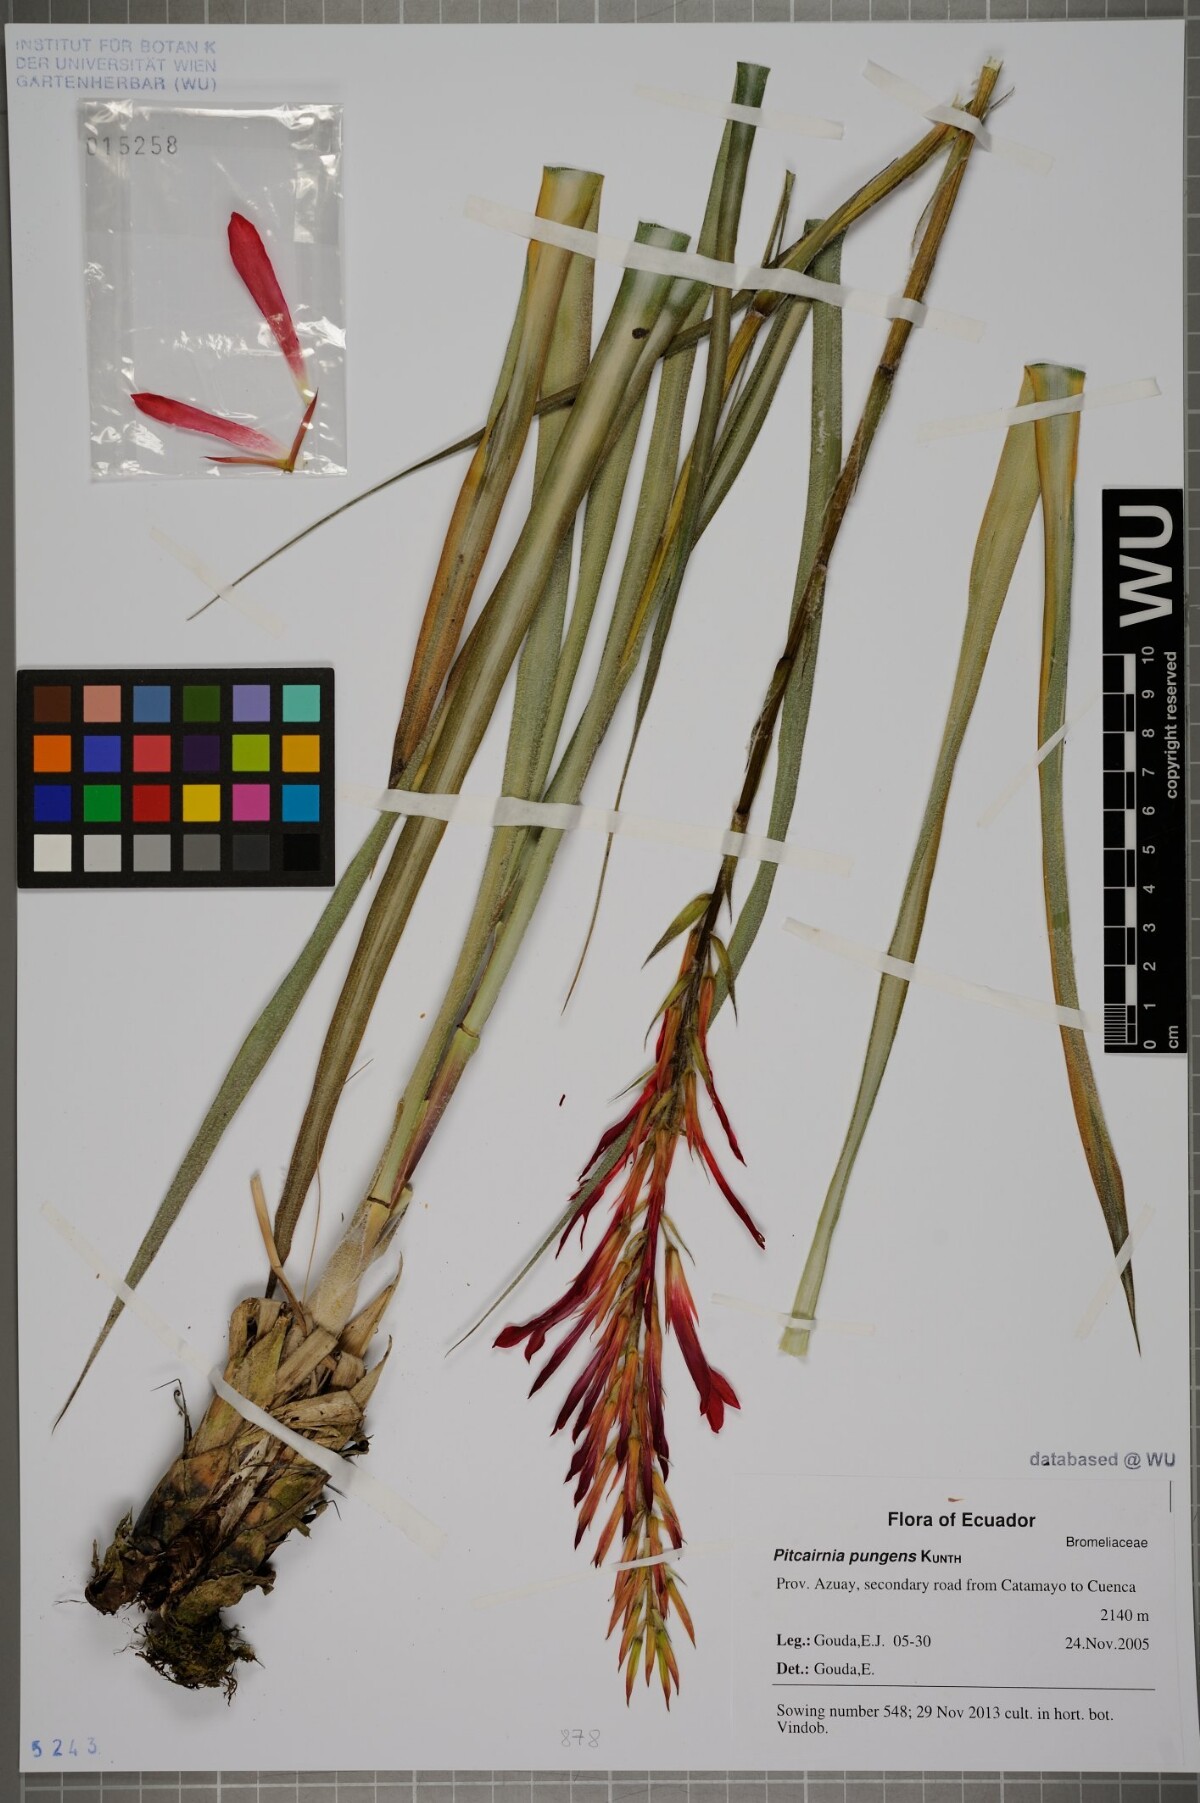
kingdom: Plantae
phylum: Tracheophyta
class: Liliopsida
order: Poales
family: Bromeliaceae
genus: Pitcairnia
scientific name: Pitcairnia pungens
